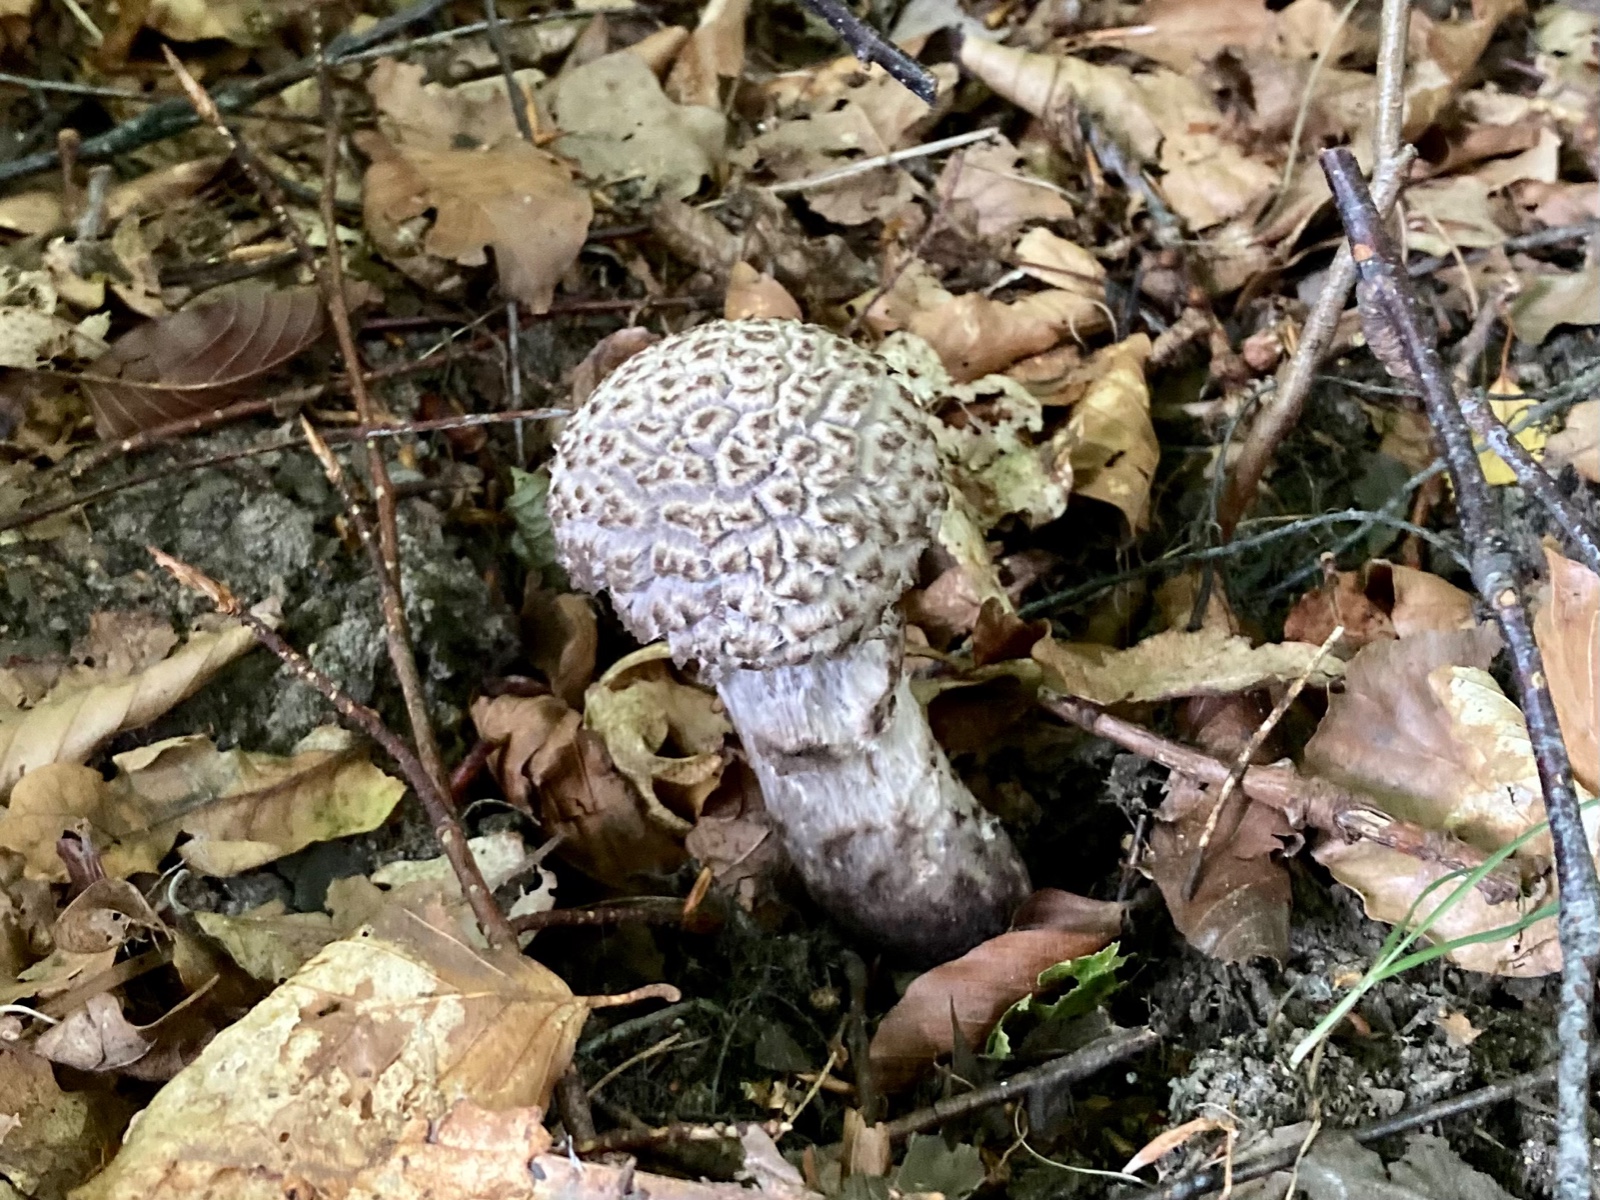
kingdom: Fungi
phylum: Basidiomycota
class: Agaricomycetes
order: Boletales
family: Boletaceae
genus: Strobilomyces
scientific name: Strobilomyces strobilaceus
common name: koglerørhat
